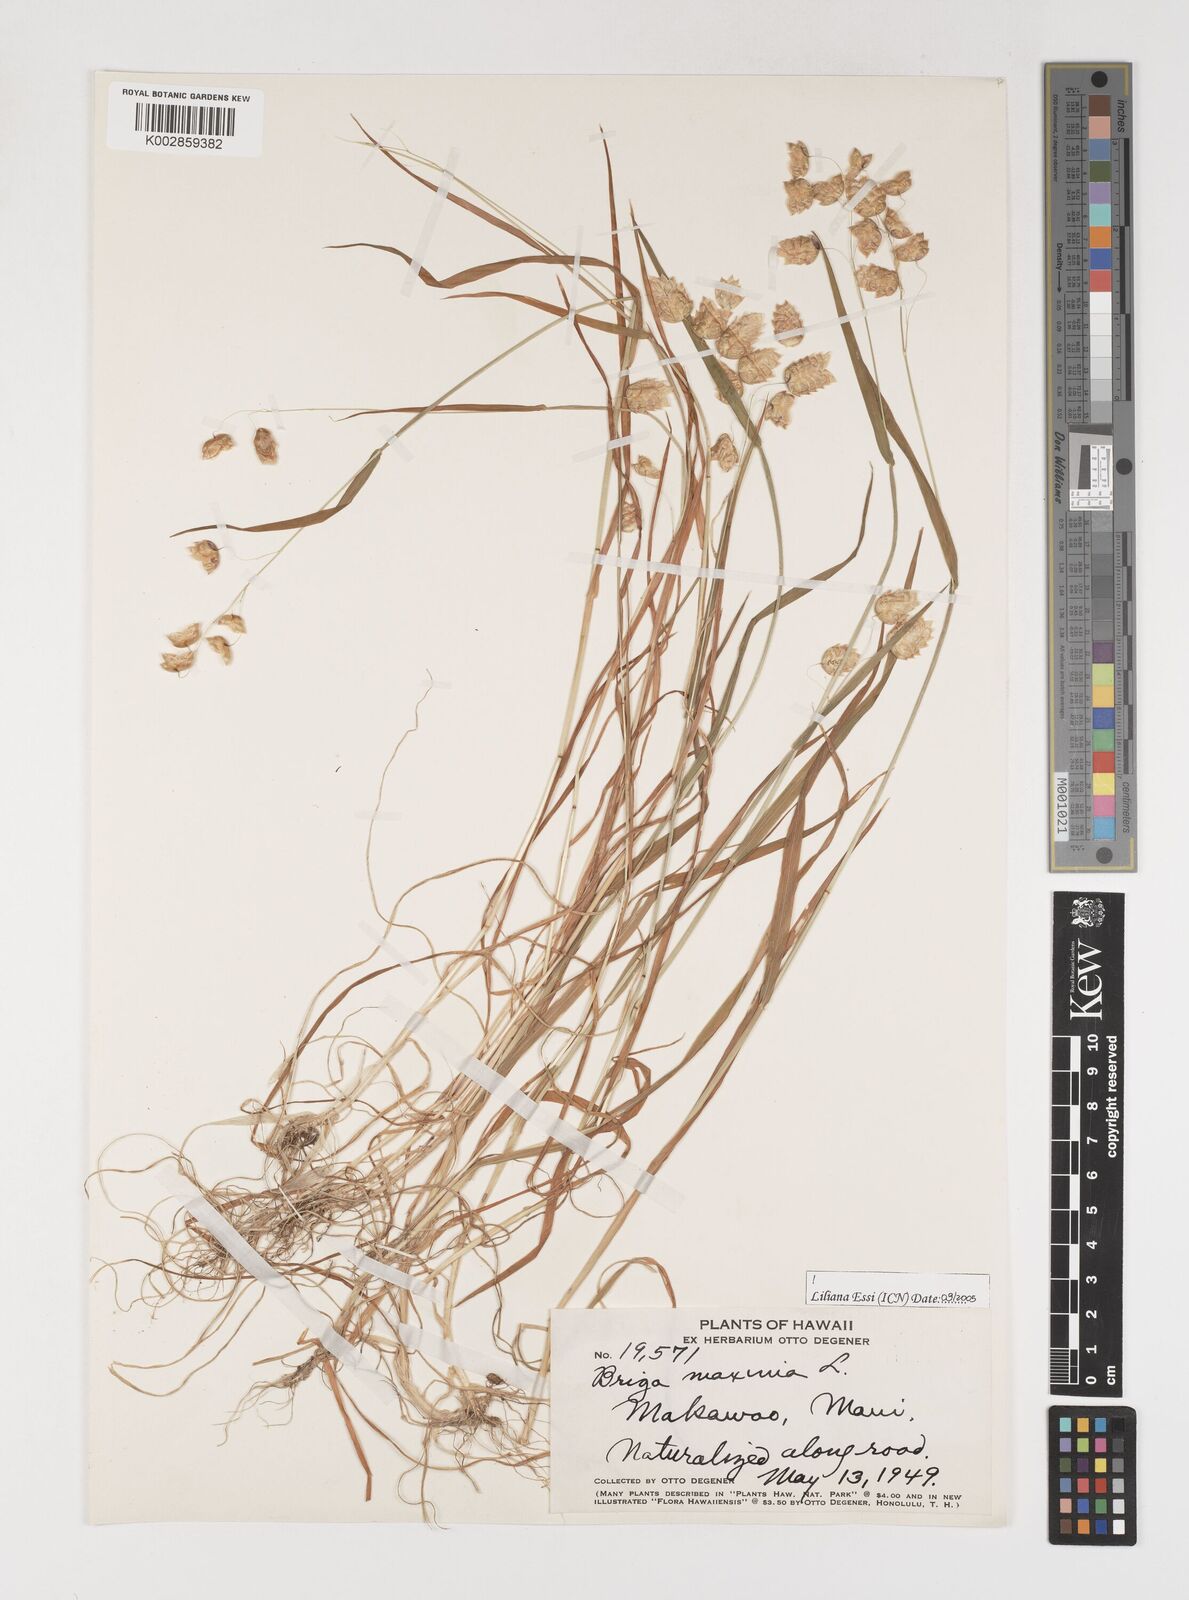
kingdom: Plantae
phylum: Tracheophyta
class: Liliopsida
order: Poales
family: Poaceae
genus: Briza
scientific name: Briza maxima
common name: Big quakinggrass
